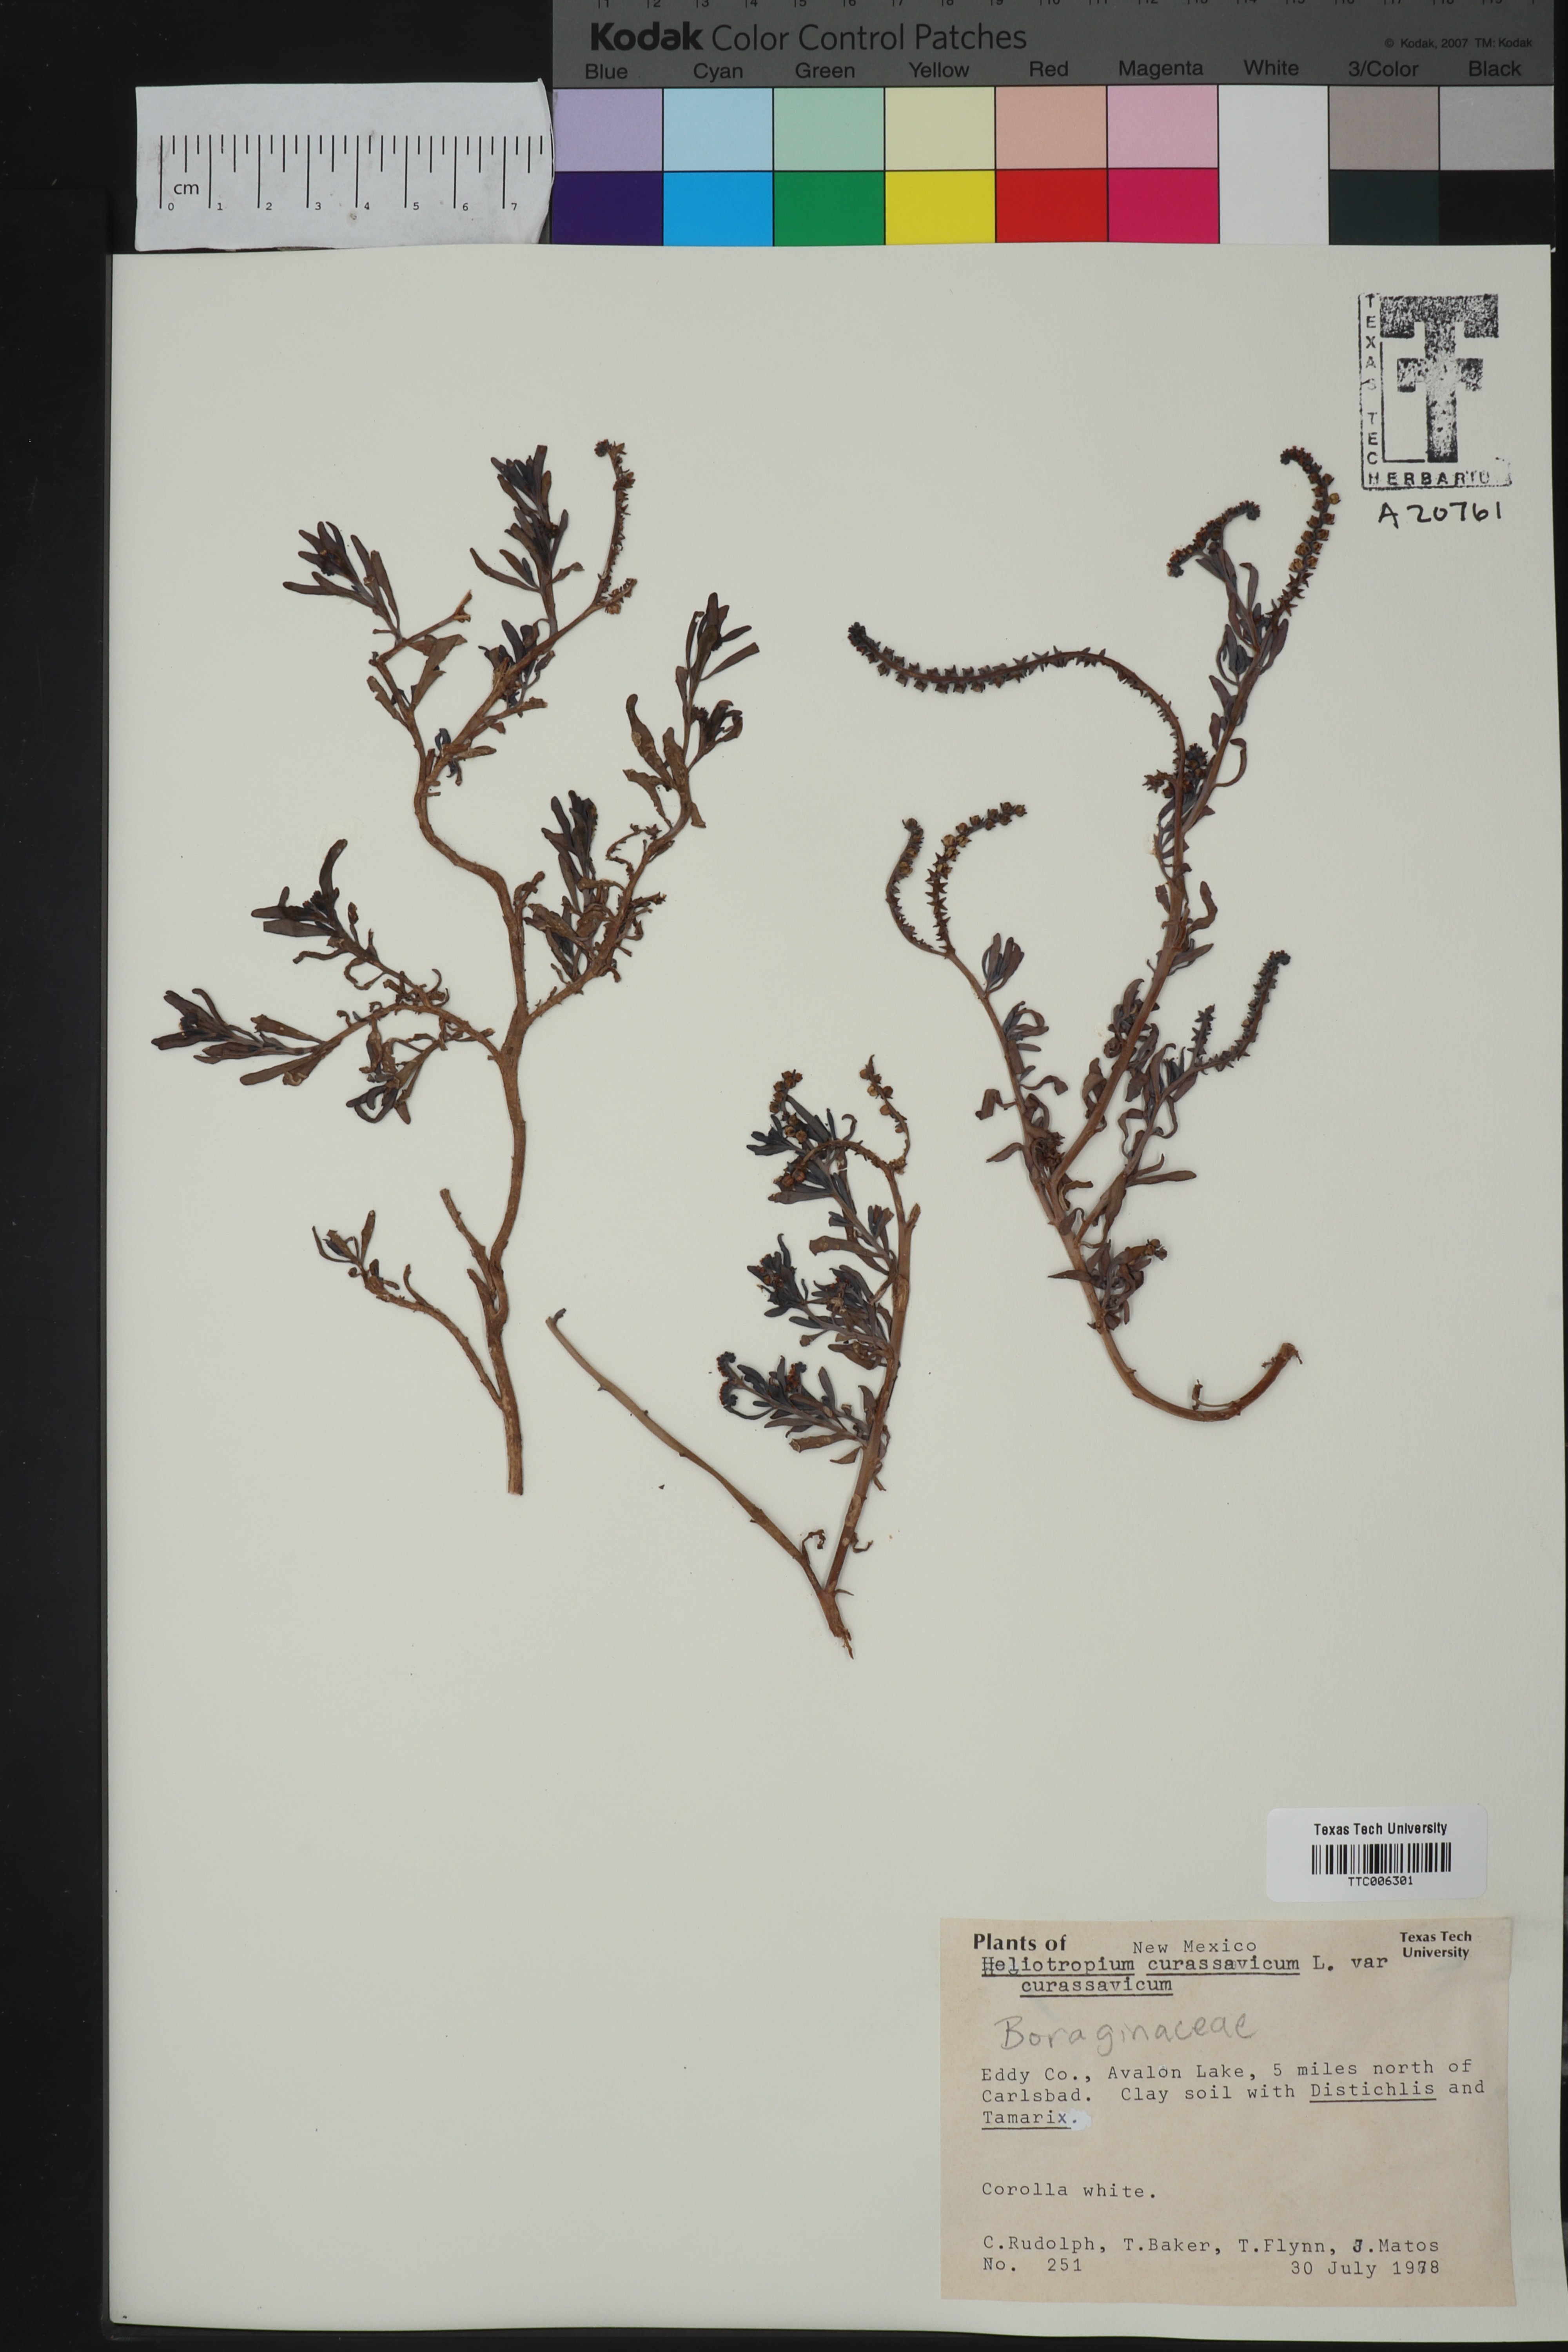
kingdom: Plantae
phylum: Tracheophyta
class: Magnoliopsida
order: Boraginales
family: Heliotropiaceae
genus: Heliotropium
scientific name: Heliotropium curassavicum
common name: Seaside heliotrope
